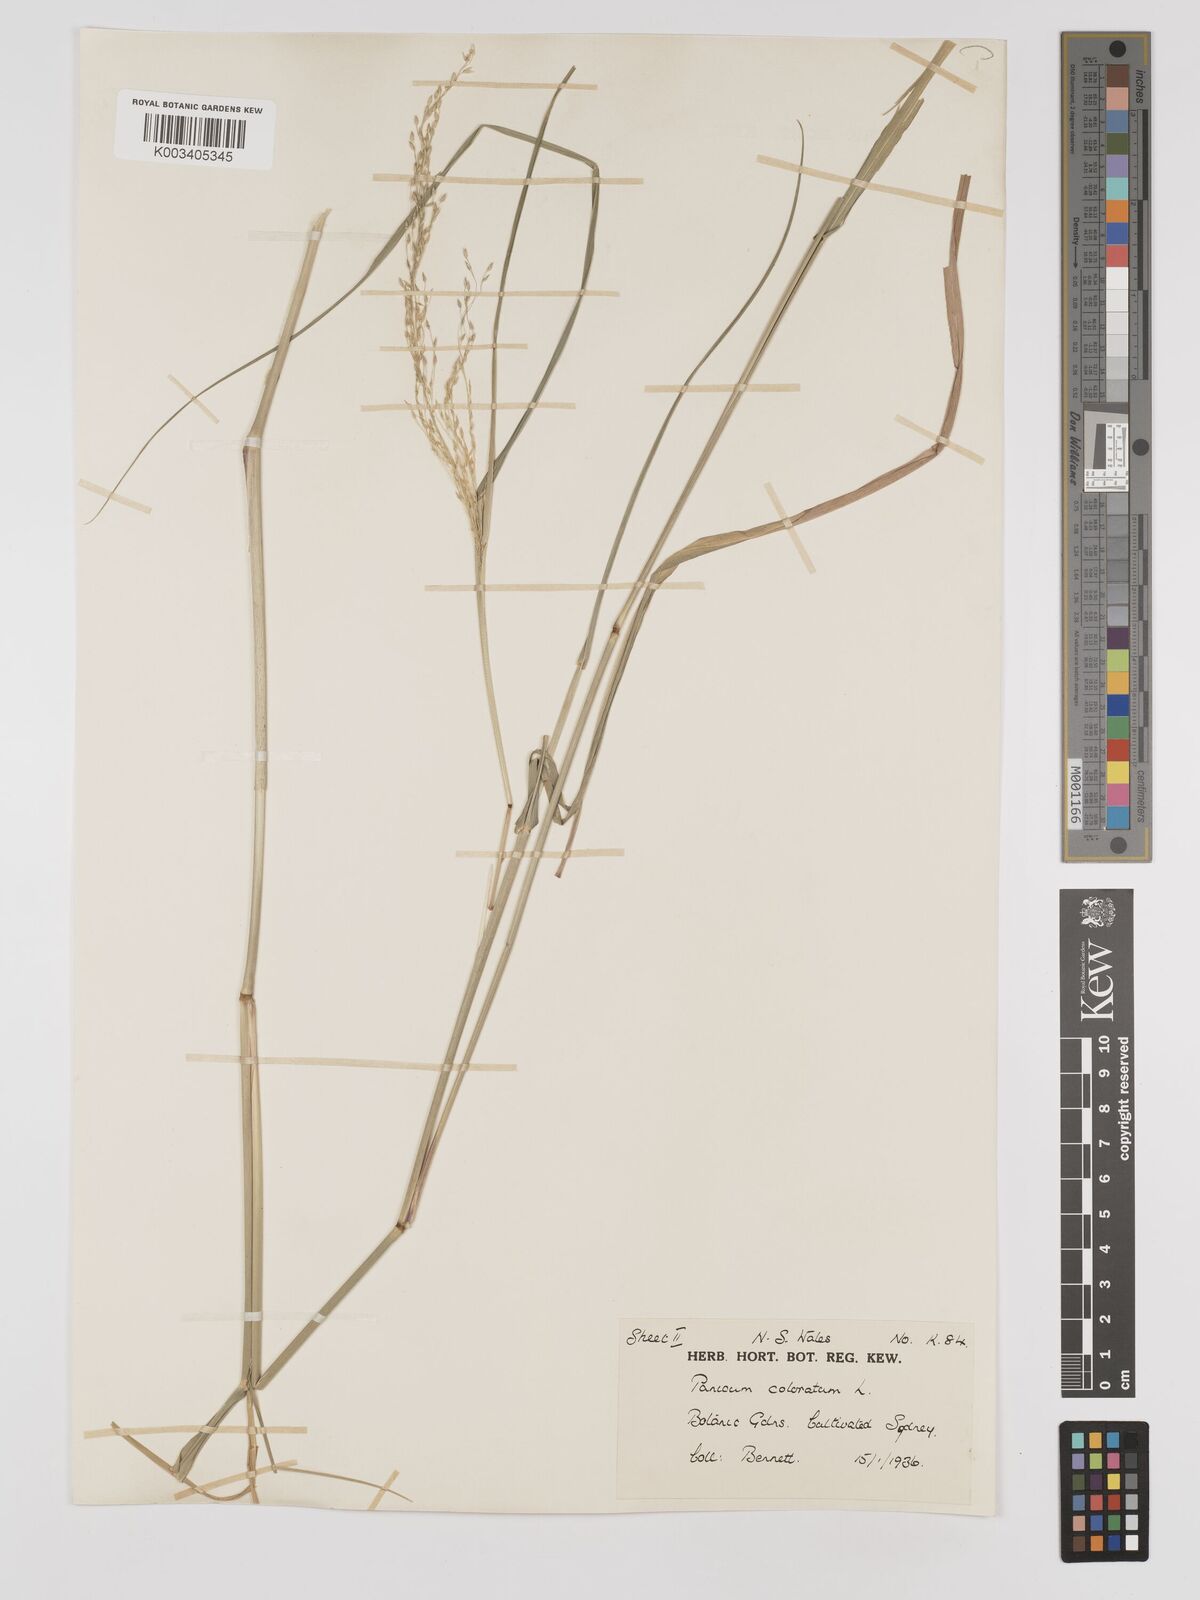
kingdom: Plantae
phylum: Tracheophyta
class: Liliopsida
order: Poales
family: Poaceae
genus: Panicum
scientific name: Panicum coloratum
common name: Kleingrass
